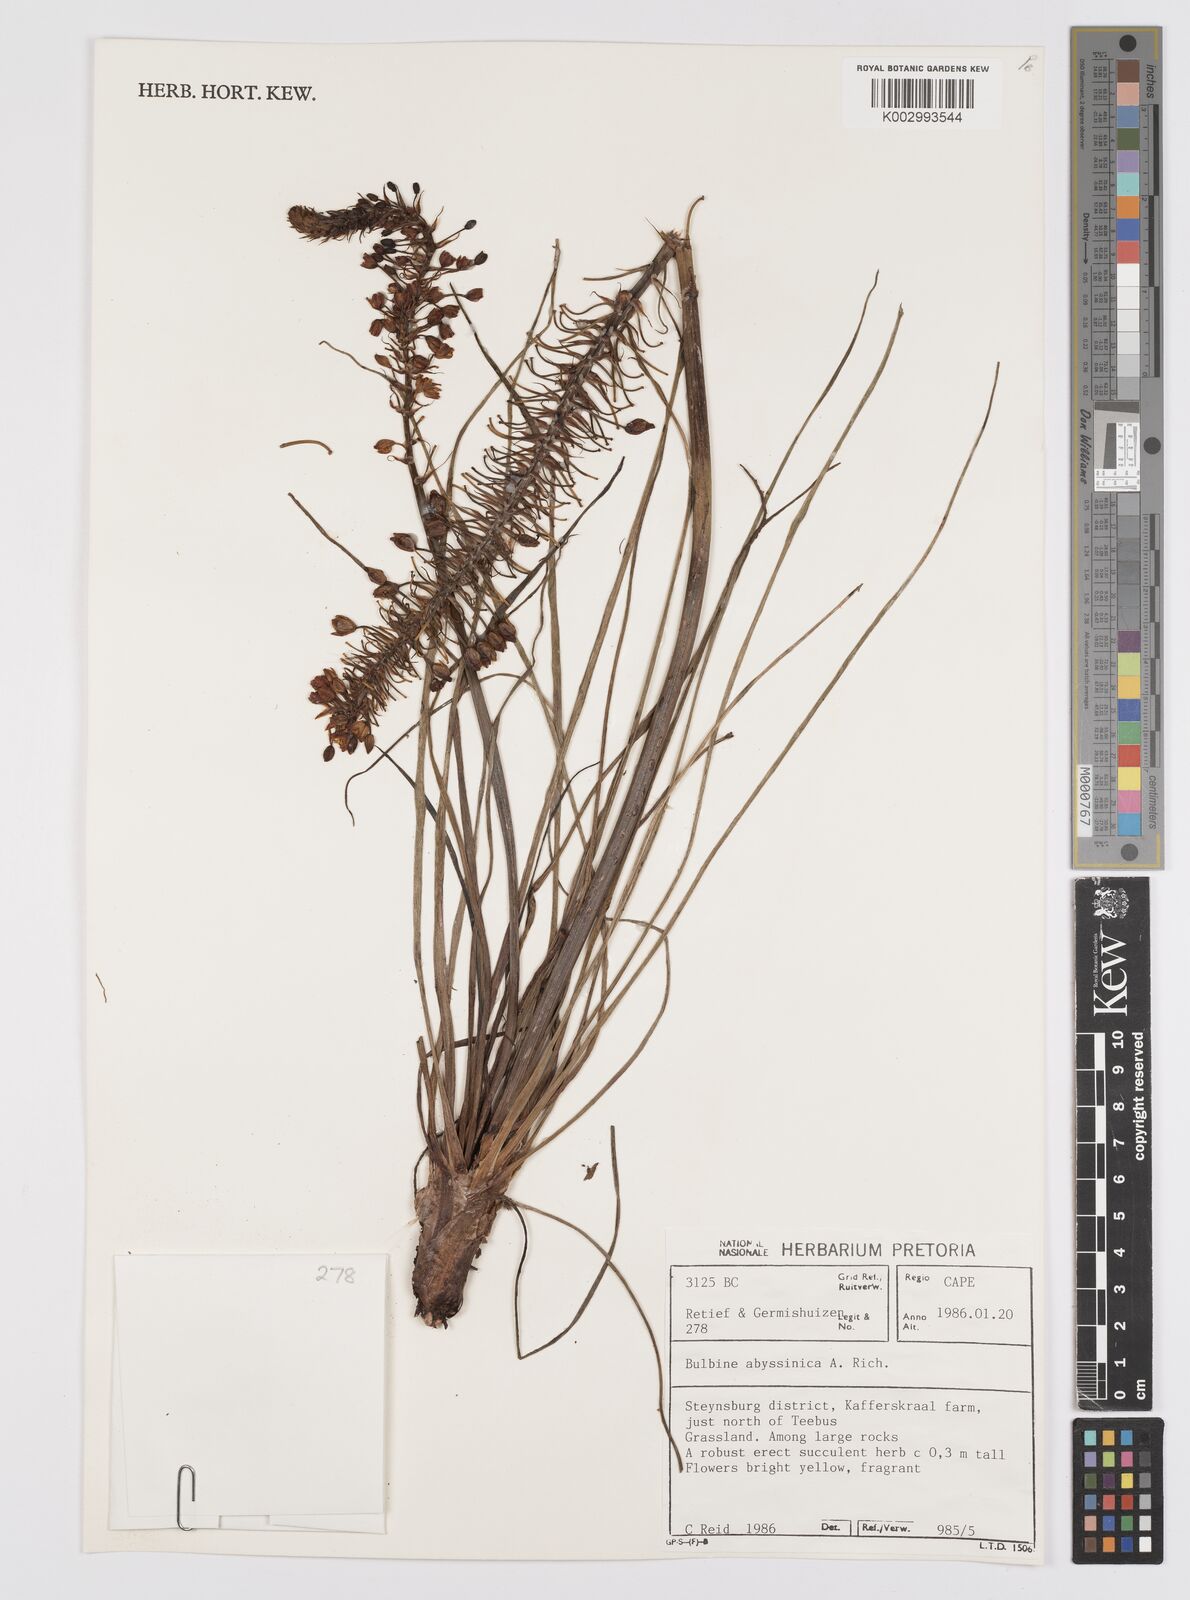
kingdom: Plantae
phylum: Tracheophyta
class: Liliopsida
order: Asparagales
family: Asphodelaceae
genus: Bulbine
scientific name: Bulbine abyssinica
